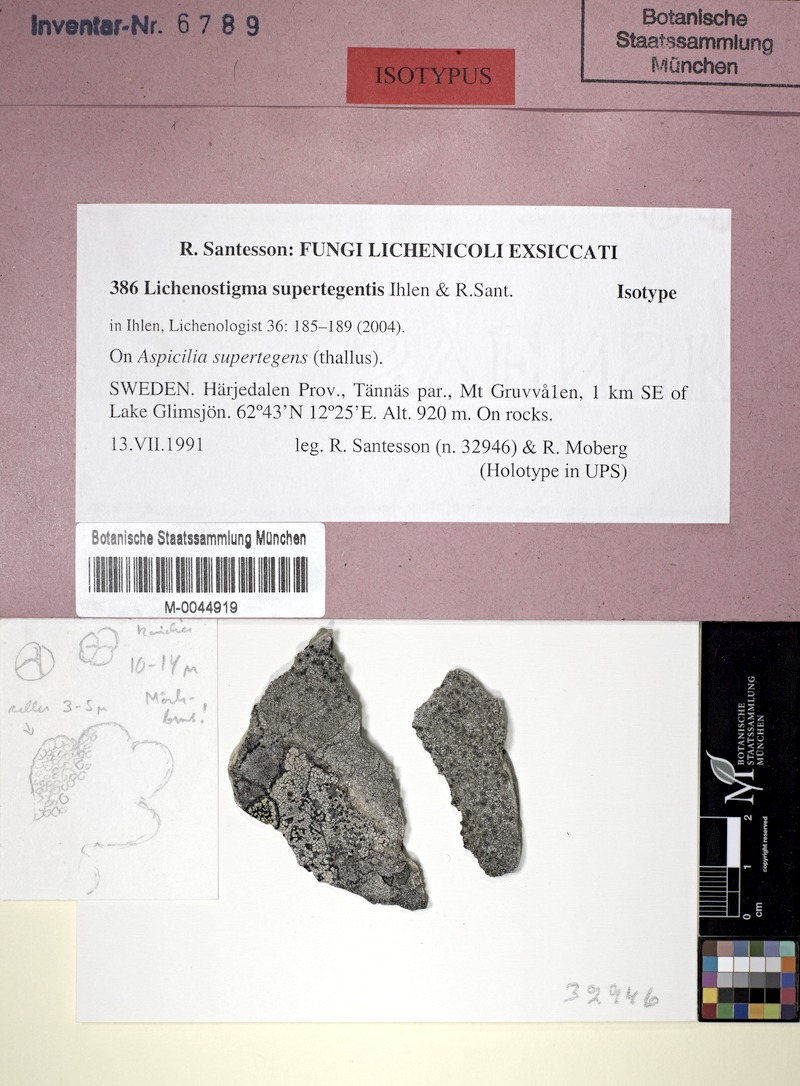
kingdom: Fungi
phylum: Ascomycota
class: Arthoniomycetes
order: Lichenostigmatales
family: Phaeococcomycetaceae
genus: Lichenostigma
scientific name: Lichenostigma supertegentis
